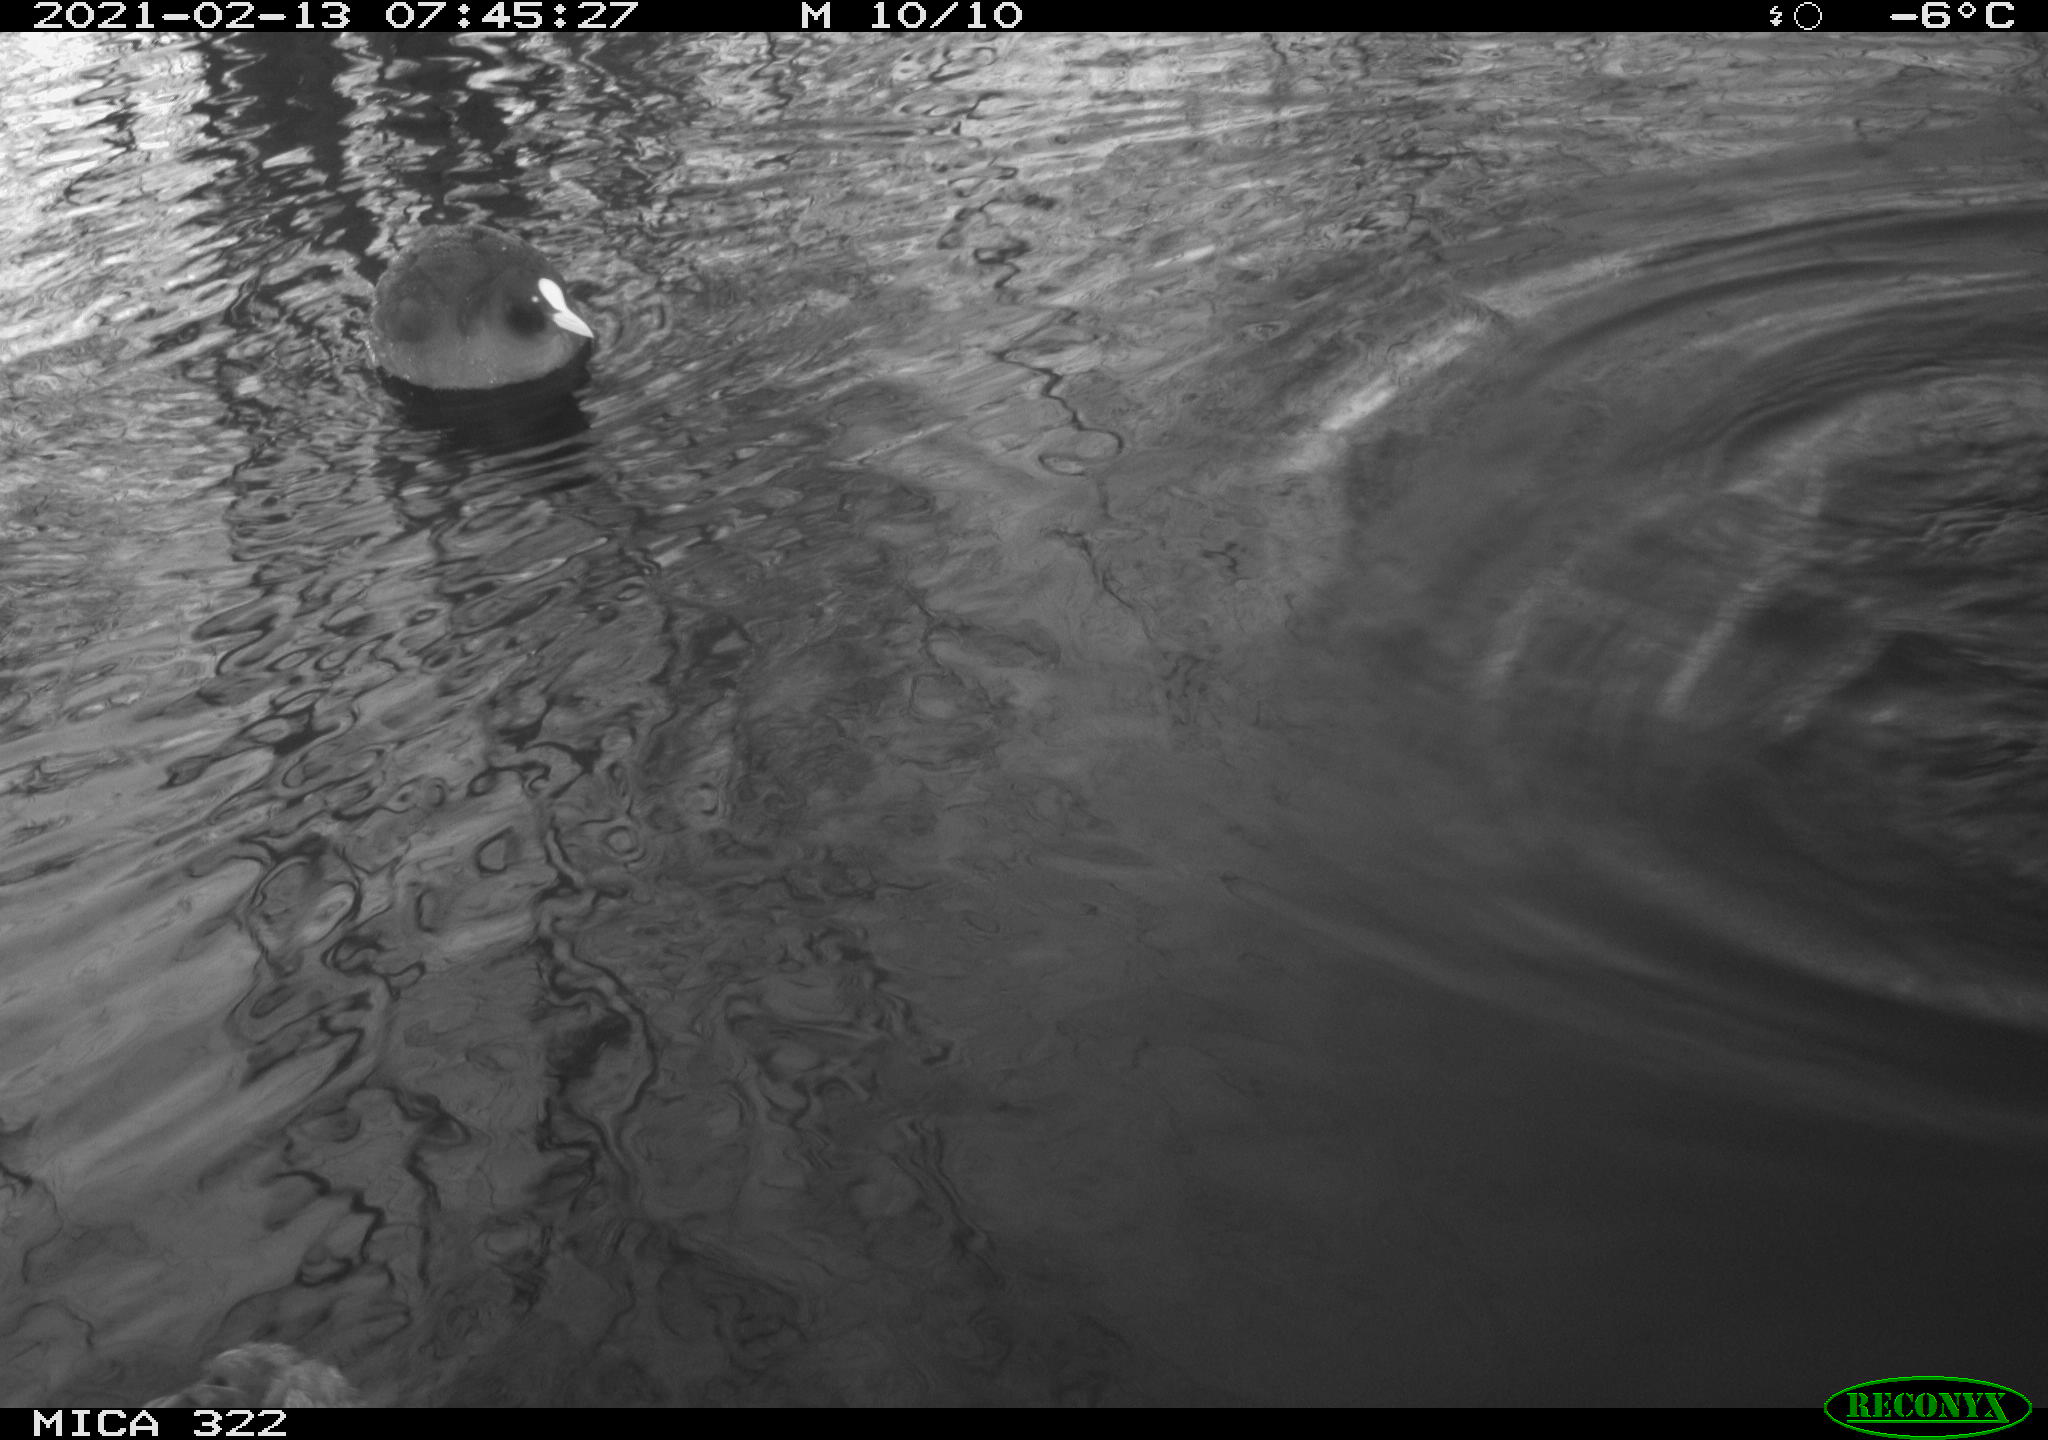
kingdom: Animalia
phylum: Chordata
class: Aves
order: Anseriformes
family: Anatidae
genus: Anas
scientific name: Anas platyrhynchos
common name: Mallard
